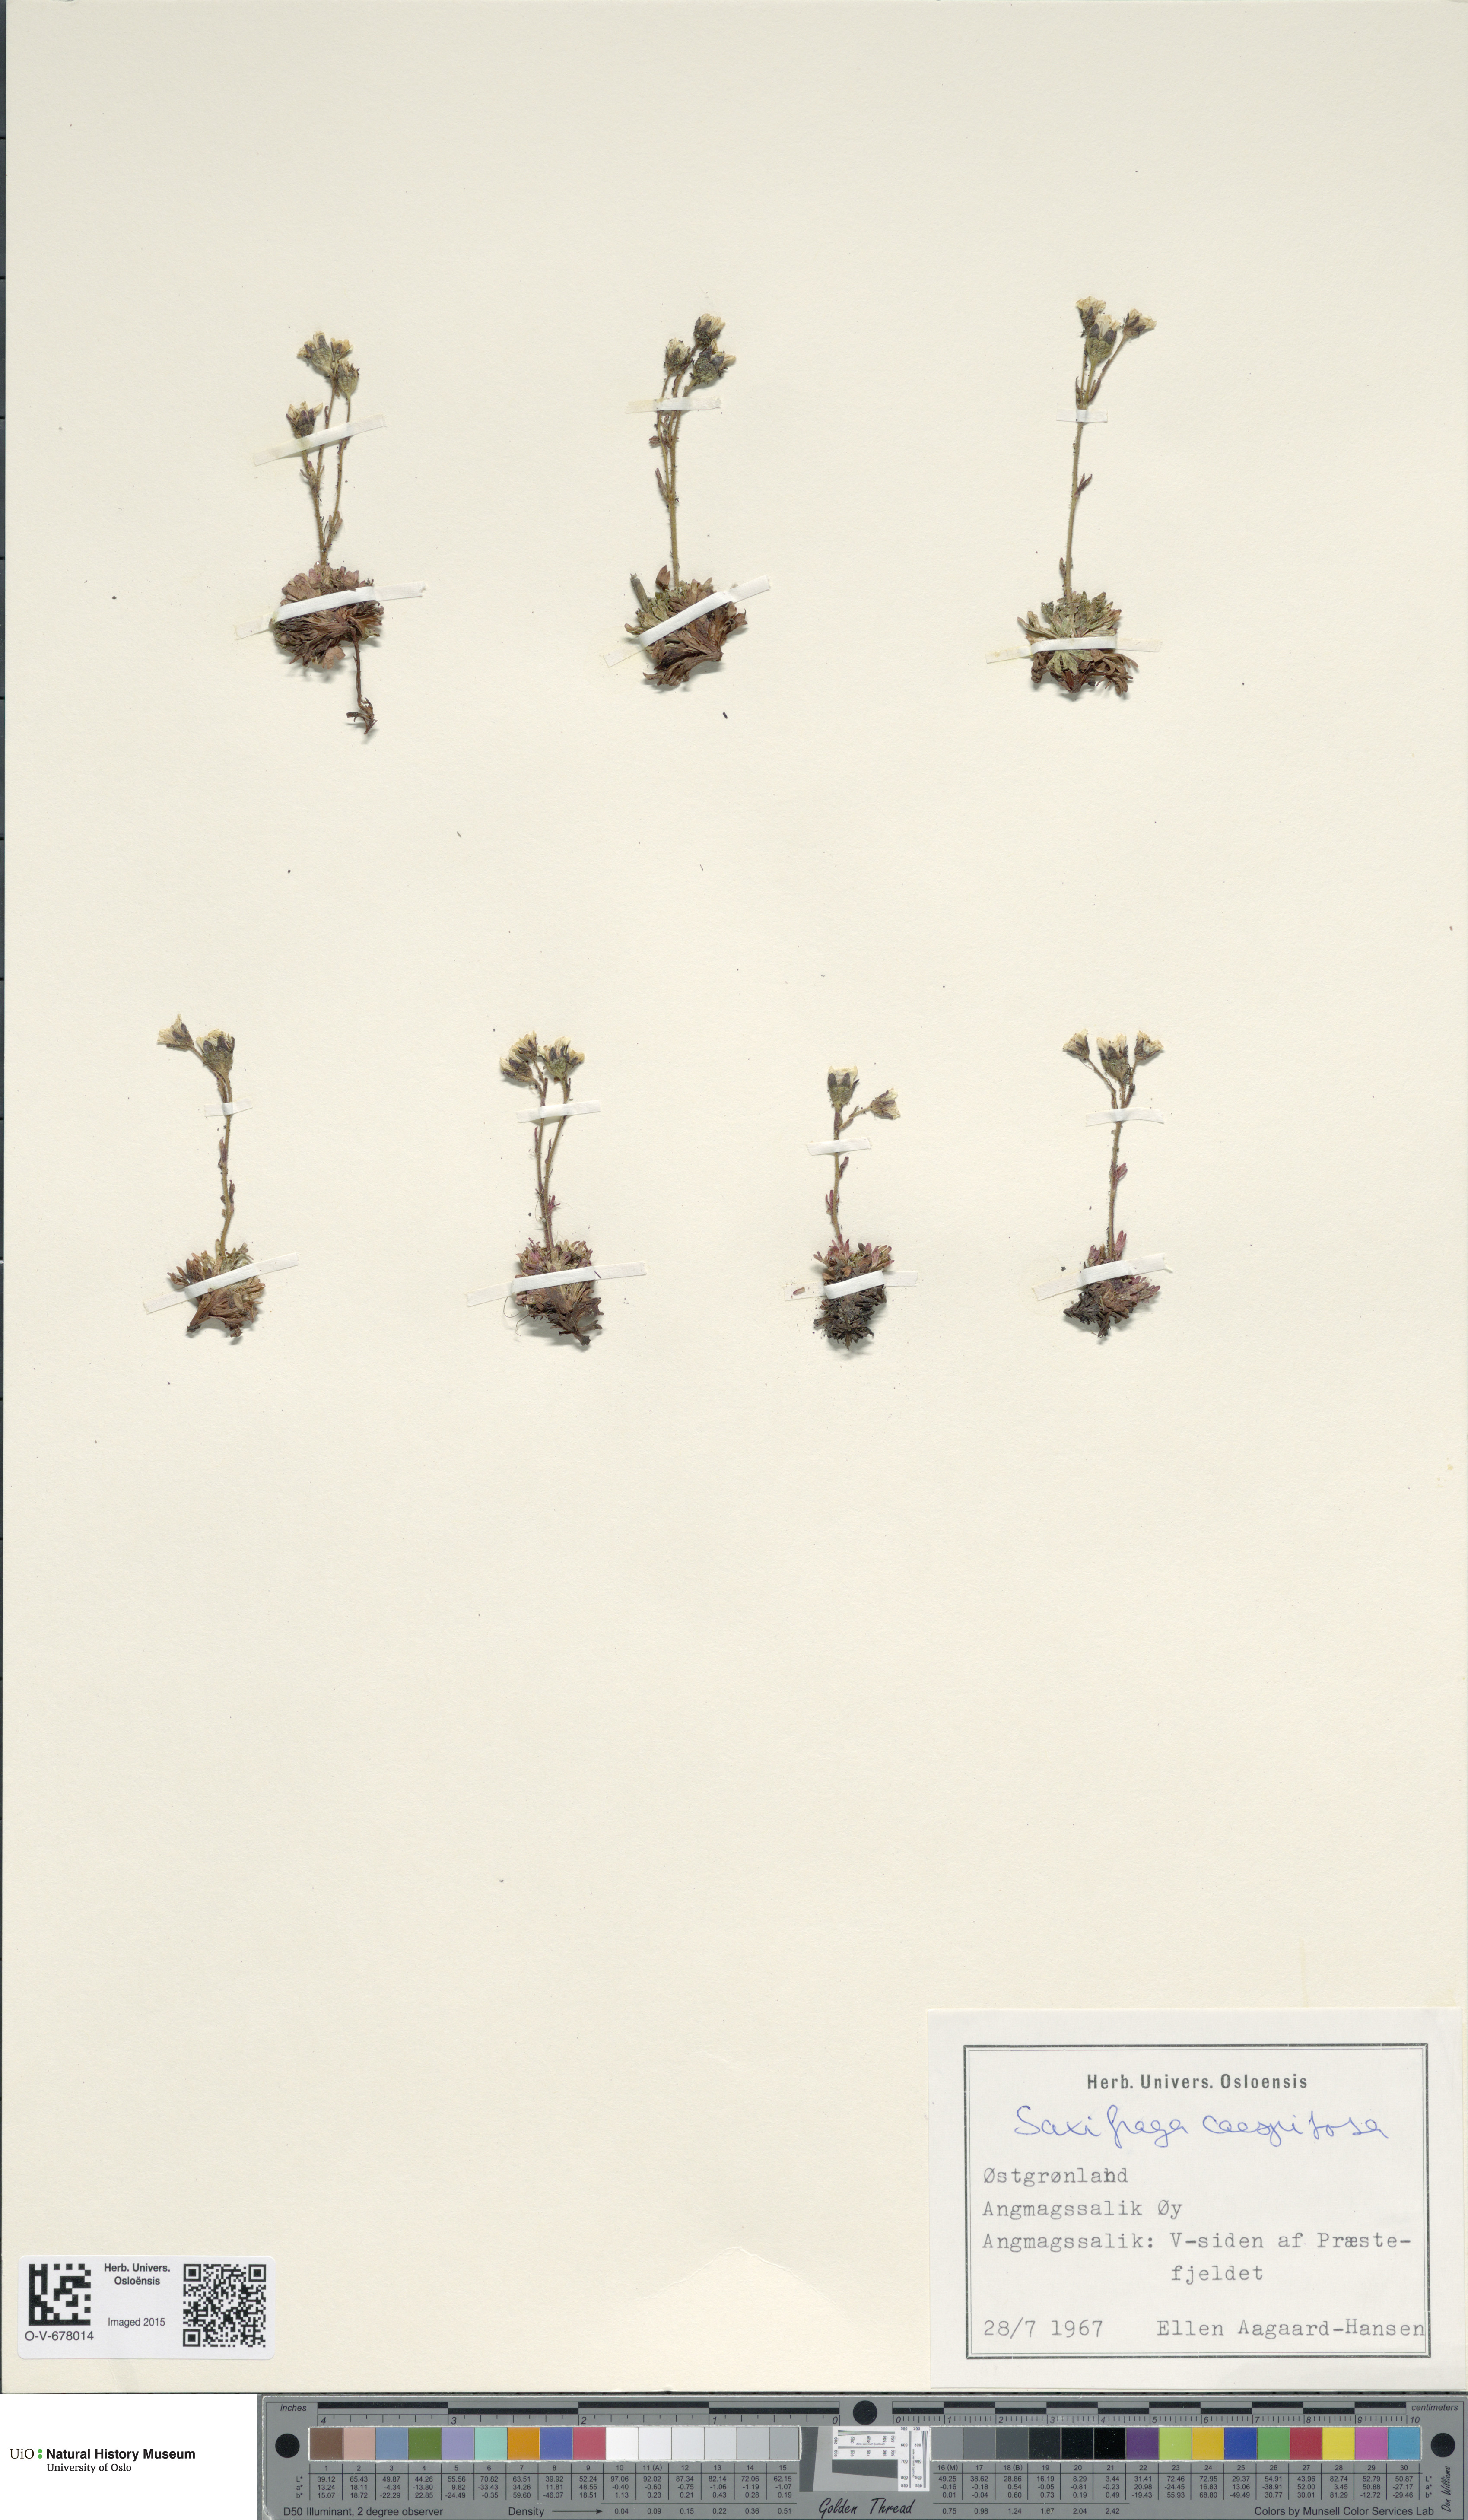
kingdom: Plantae
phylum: Tracheophyta
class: Magnoliopsida
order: Saxifragales
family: Saxifragaceae
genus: Saxifraga
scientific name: Saxifraga cespitosa
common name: Tufted saxifrage
